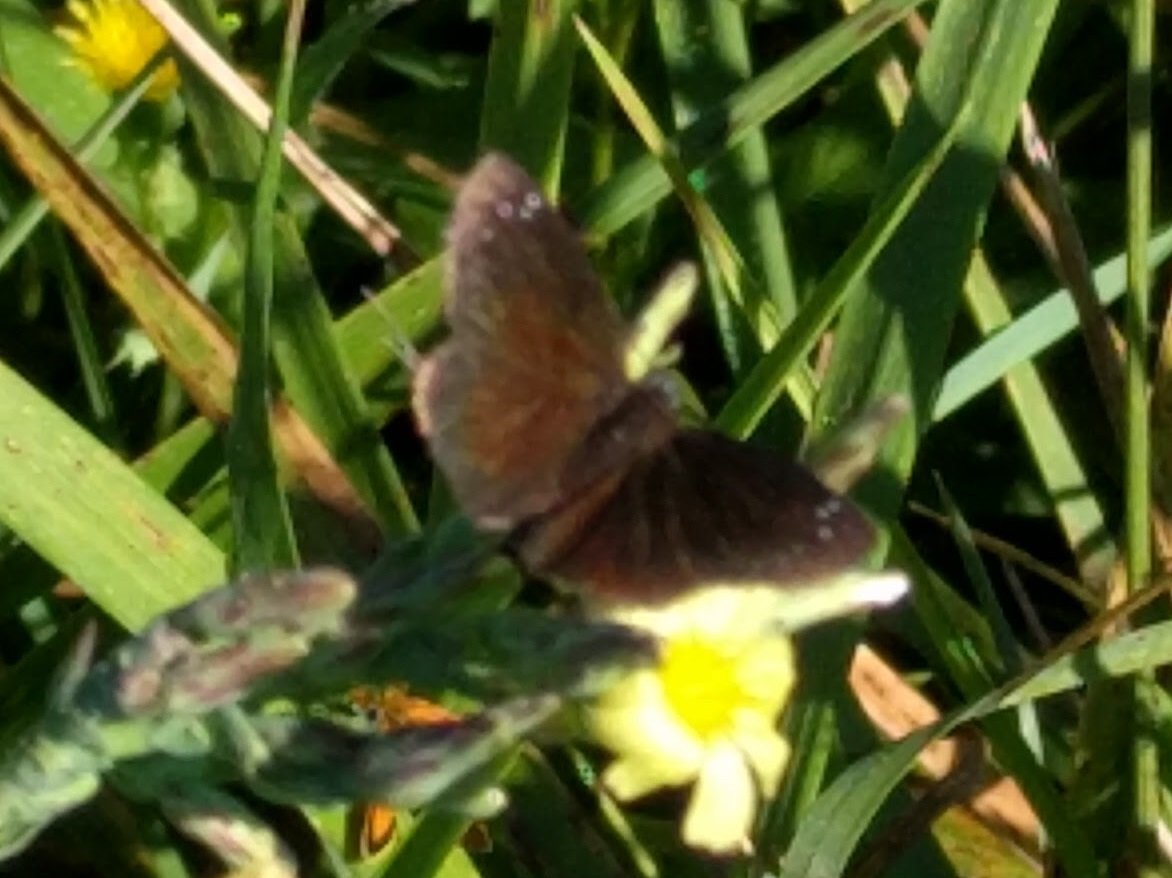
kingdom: Animalia
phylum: Arthropoda
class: Insecta
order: Lepidoptera
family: Hesperiidae
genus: Pholisora
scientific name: Pholisora catullus
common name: Common Sootywing
